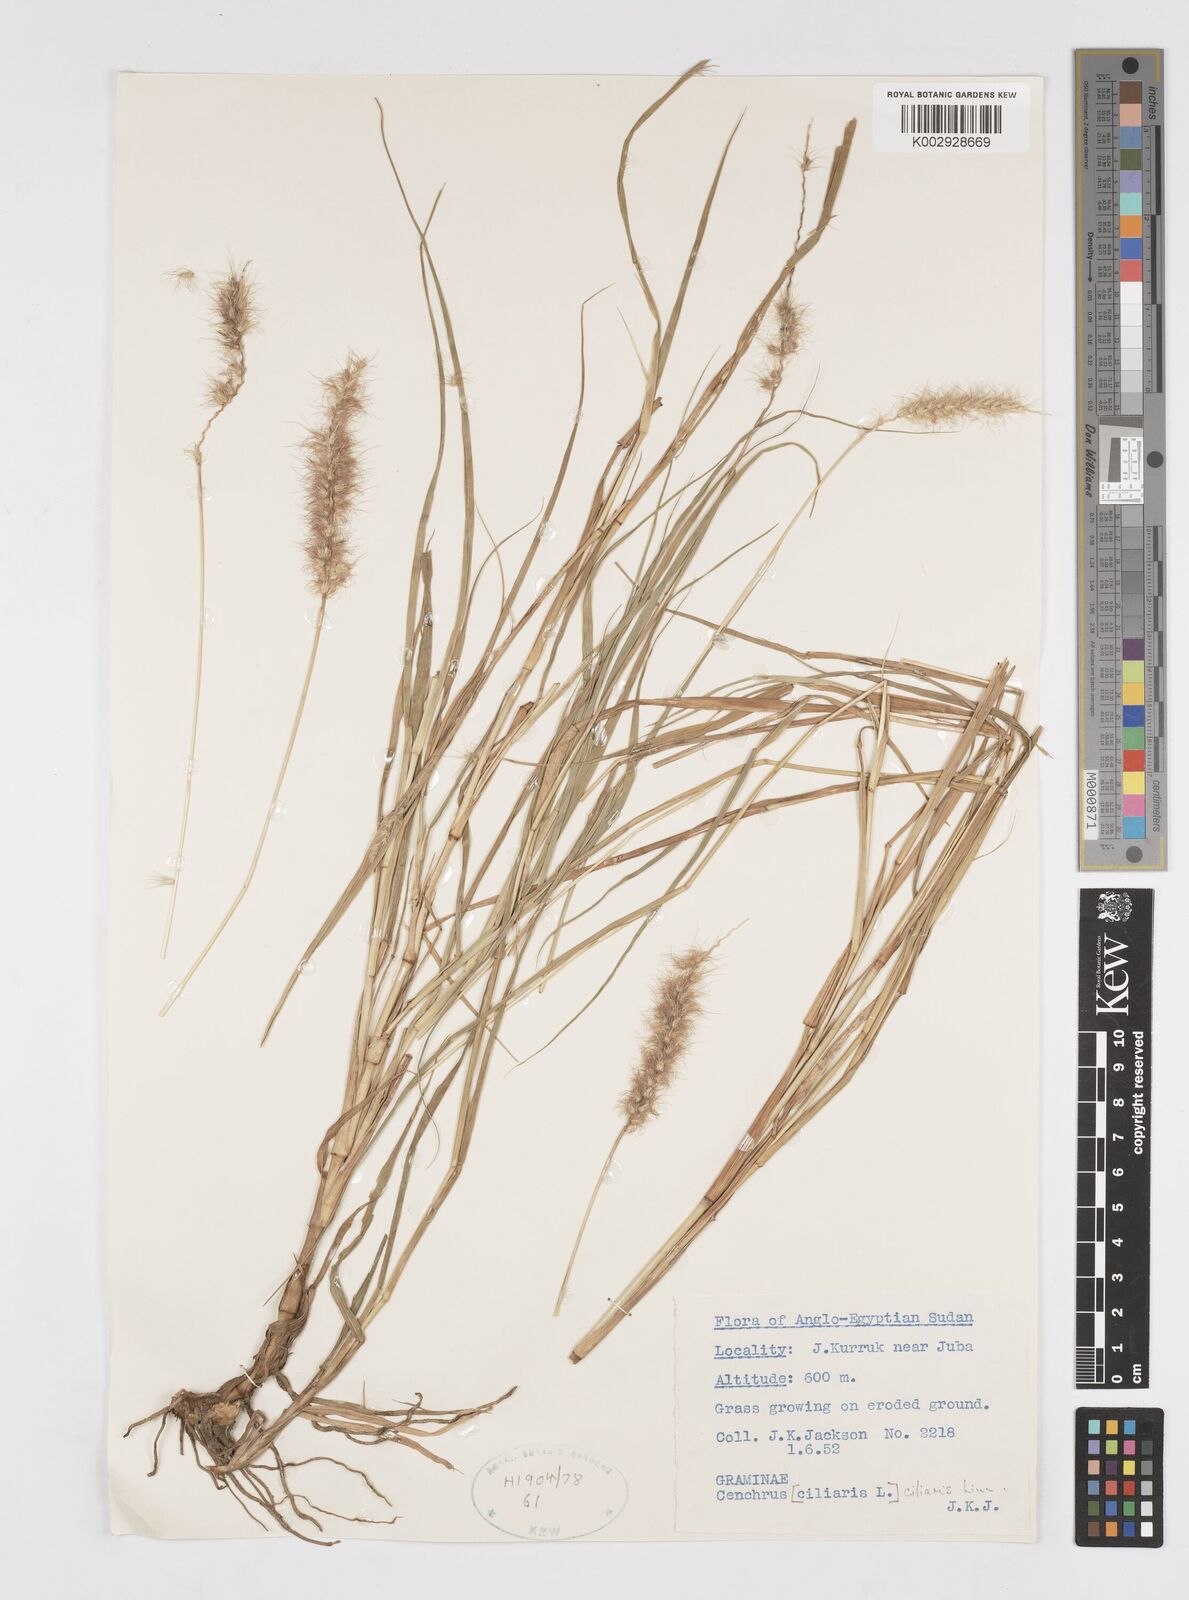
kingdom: Plantae
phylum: Tracheophyta
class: Liliopsida
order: Poales
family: Poaceae
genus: Cenchrus
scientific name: Cenchrus ciliaris
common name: Buffelgrass
